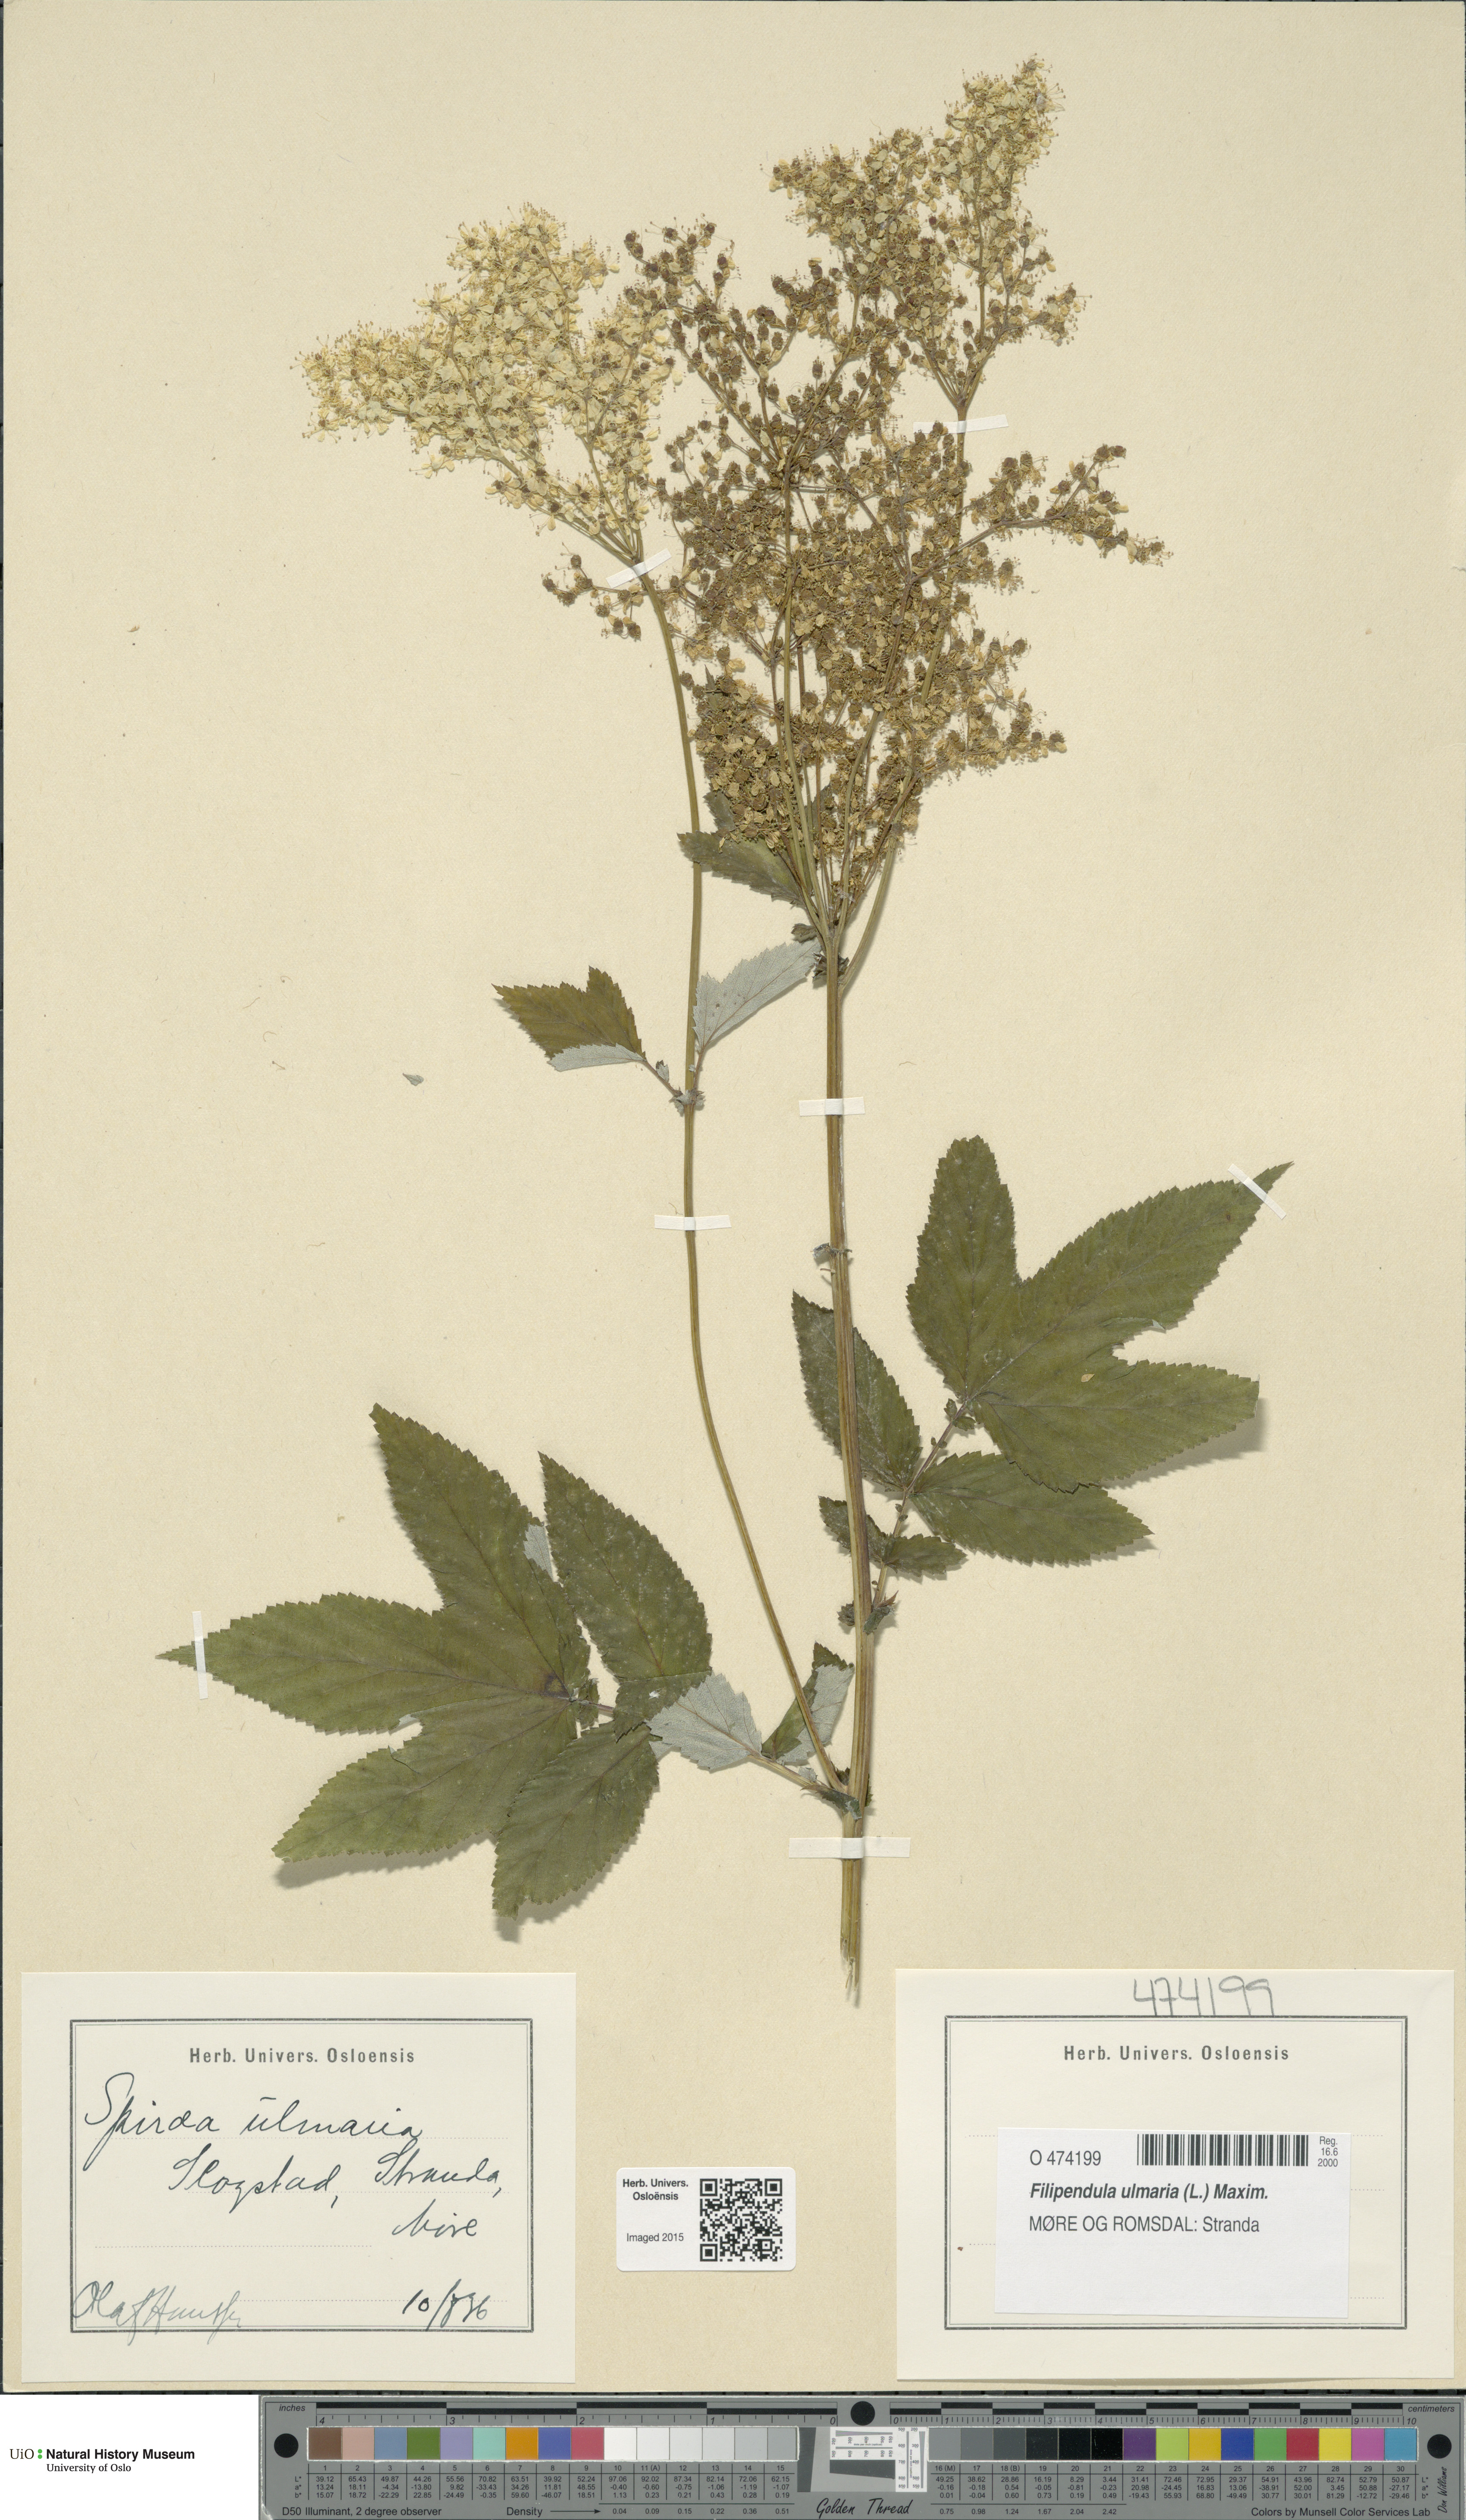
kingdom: Plantae
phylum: Tracheophyta
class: Magnoliopsida
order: Rosales
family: Rosaceae
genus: Filipendula
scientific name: Filipendula ulmaria
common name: Meadowsweet
